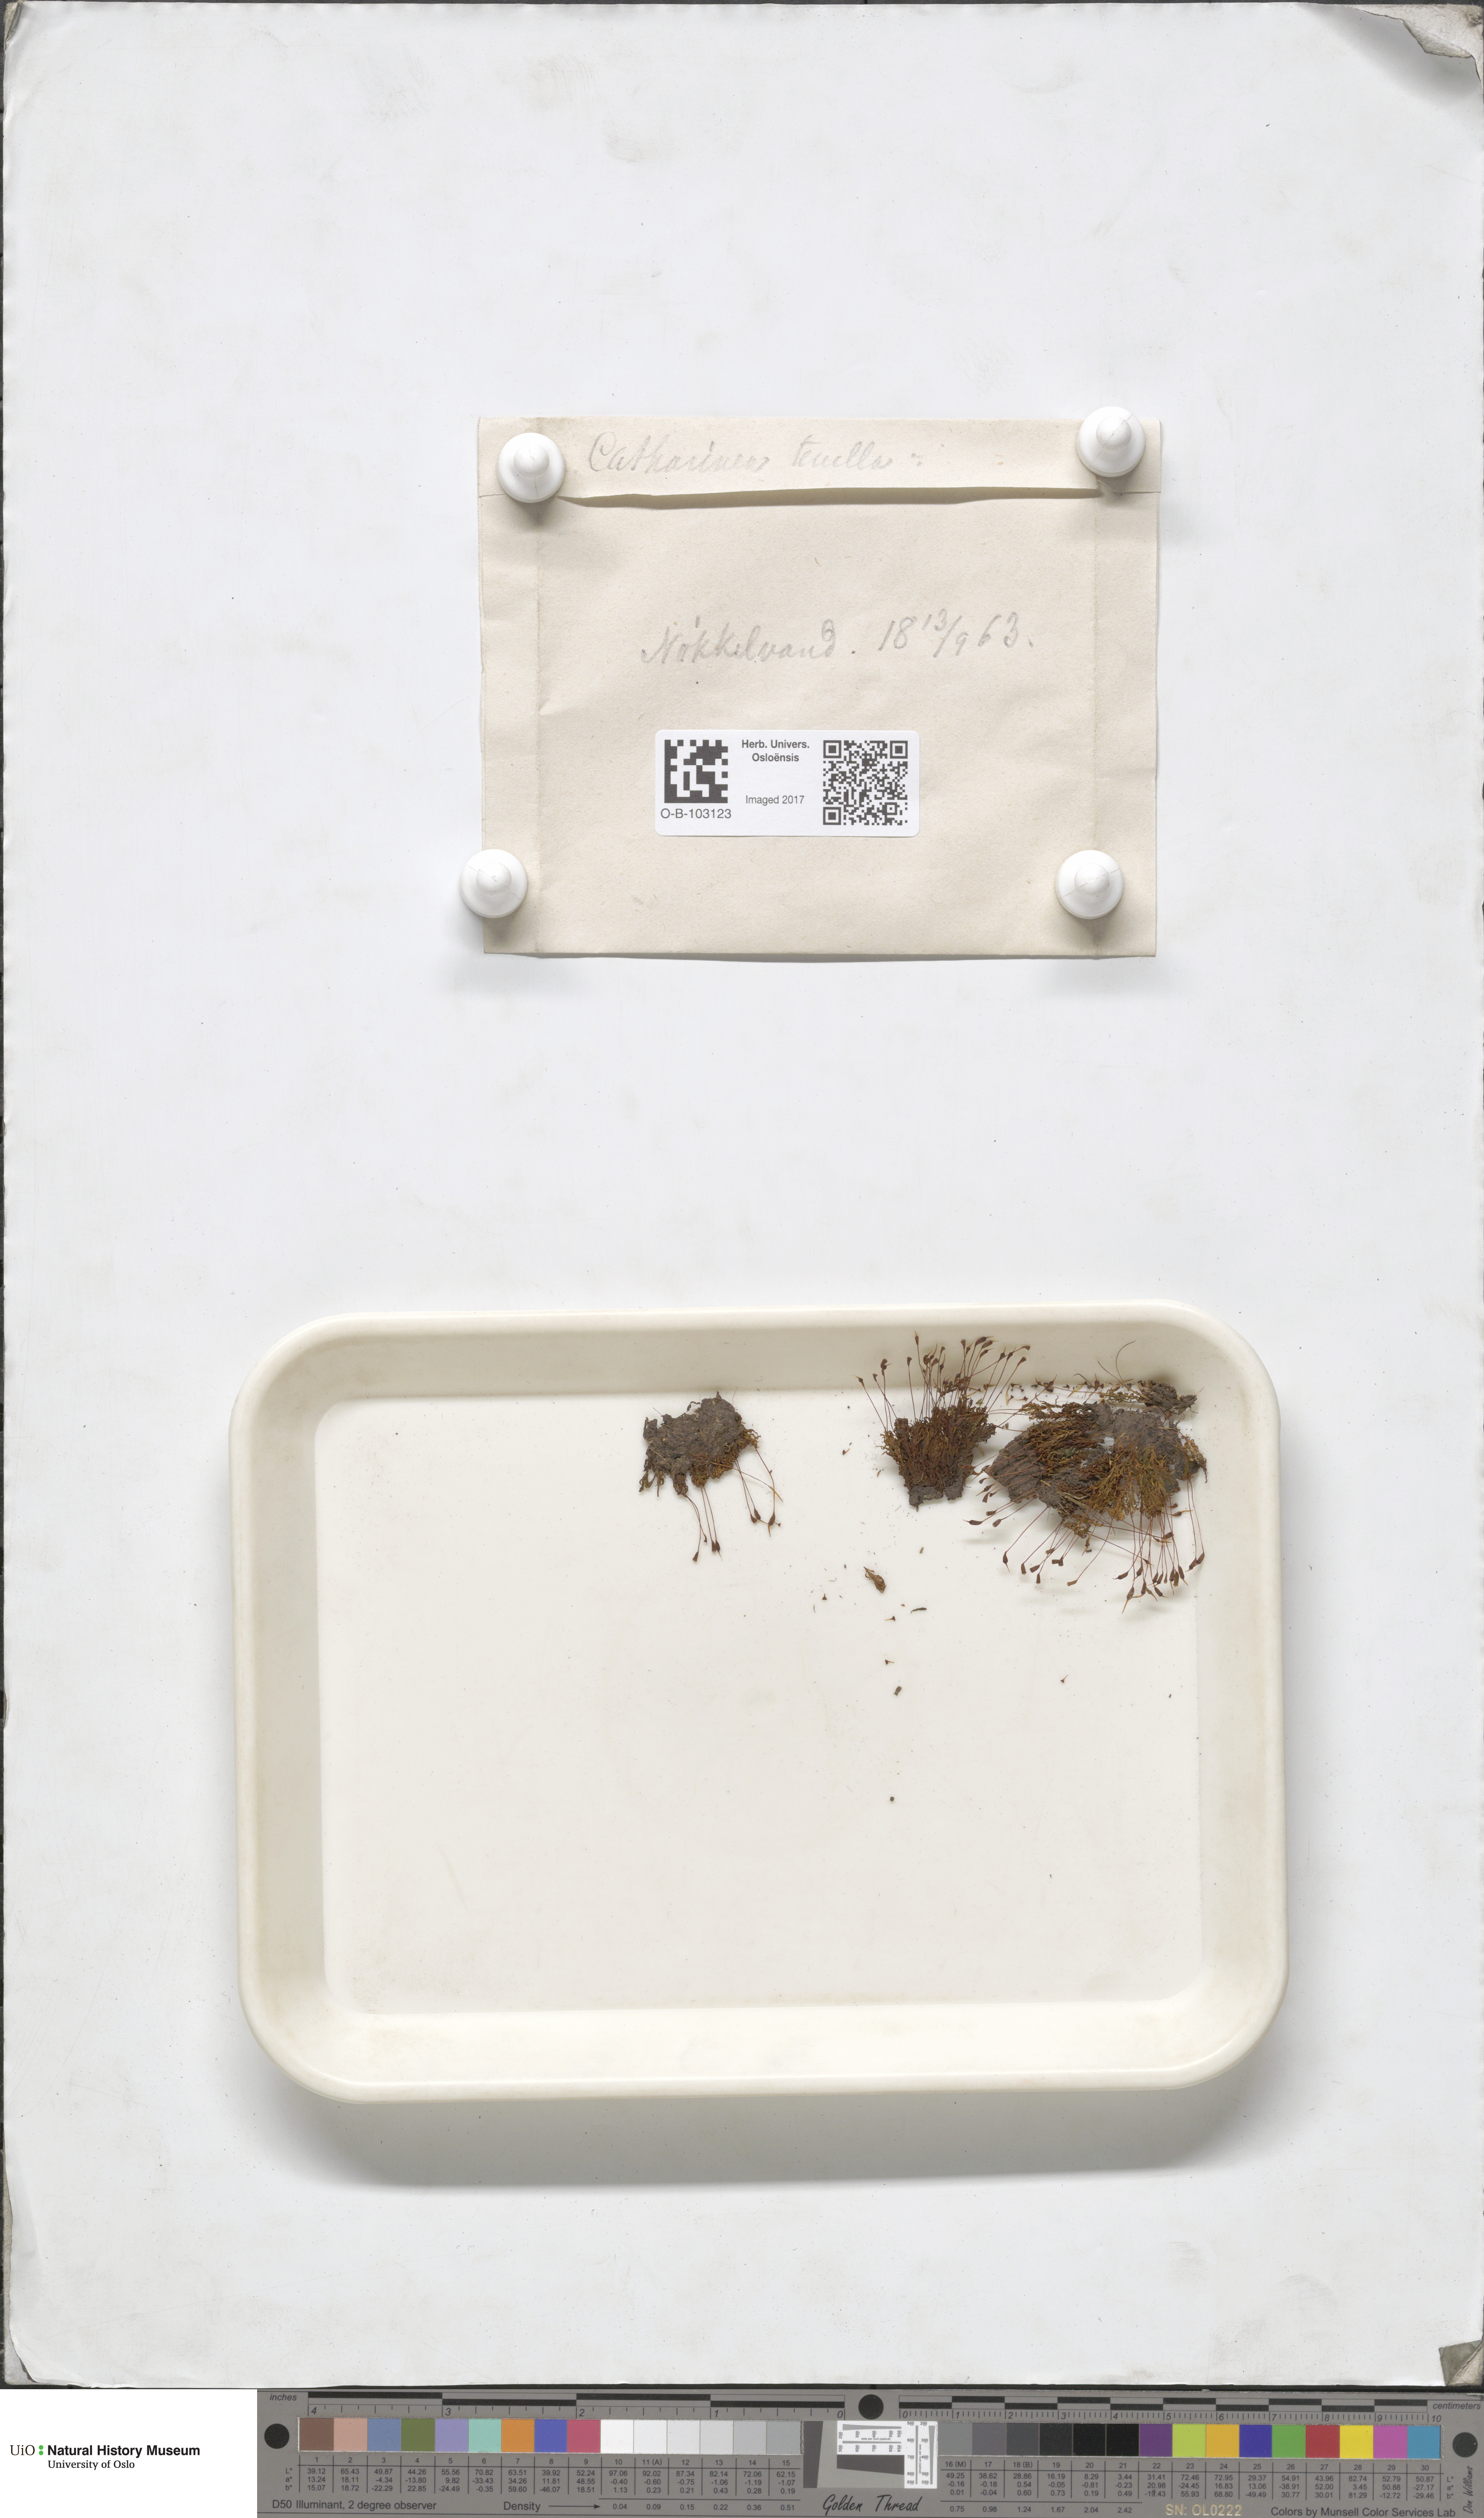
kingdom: Plantae
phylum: Bryophyta
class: Polytrichopsida
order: Polytrichales
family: Polytrichaceae
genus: Atrichum
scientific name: Atrichum tenellum
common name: Slender smoothcap moss
